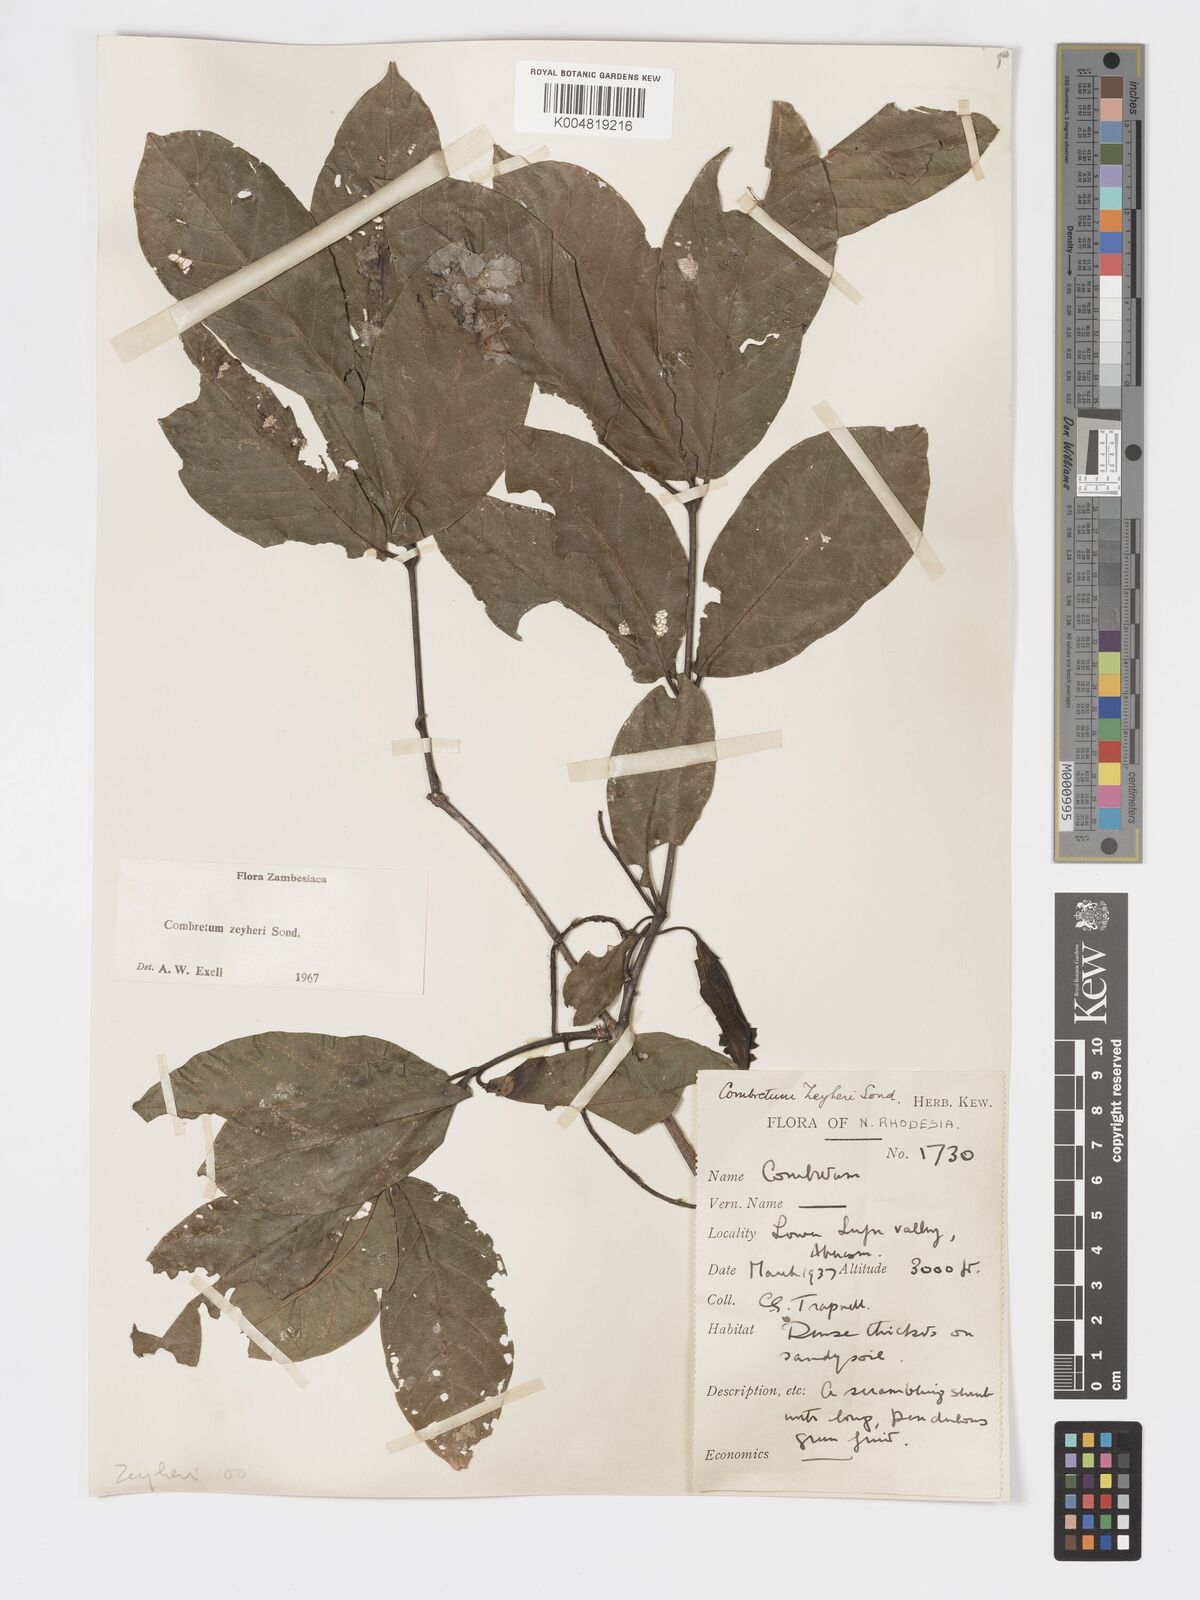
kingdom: Plantae
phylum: Tracheophyta
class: Magnoliopsida
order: Myrtales
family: Combretaceae
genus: Combretum
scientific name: Combretum zeyheri
